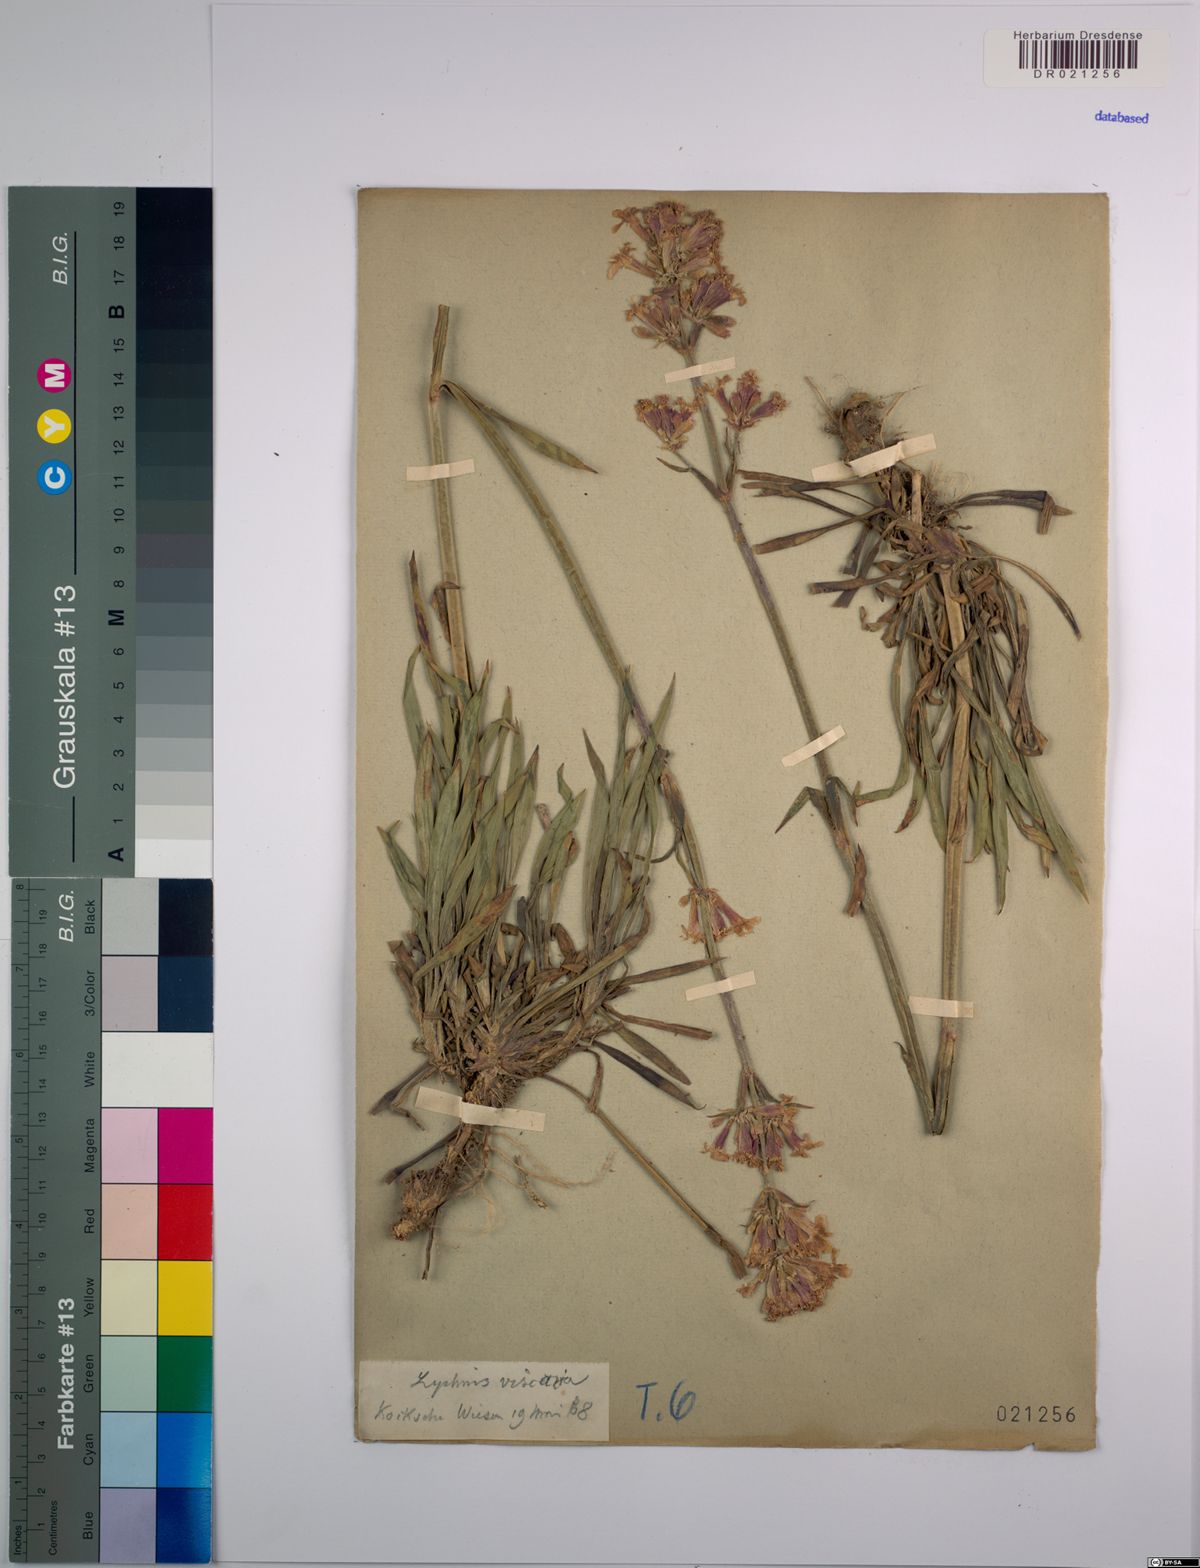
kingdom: Plantae
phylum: Tracheophyta
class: Magnoliopsida
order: Caryophyllales
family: Caryophyllaceae
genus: Viscaria
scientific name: Viscaria vulgaris
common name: Clammy campion
